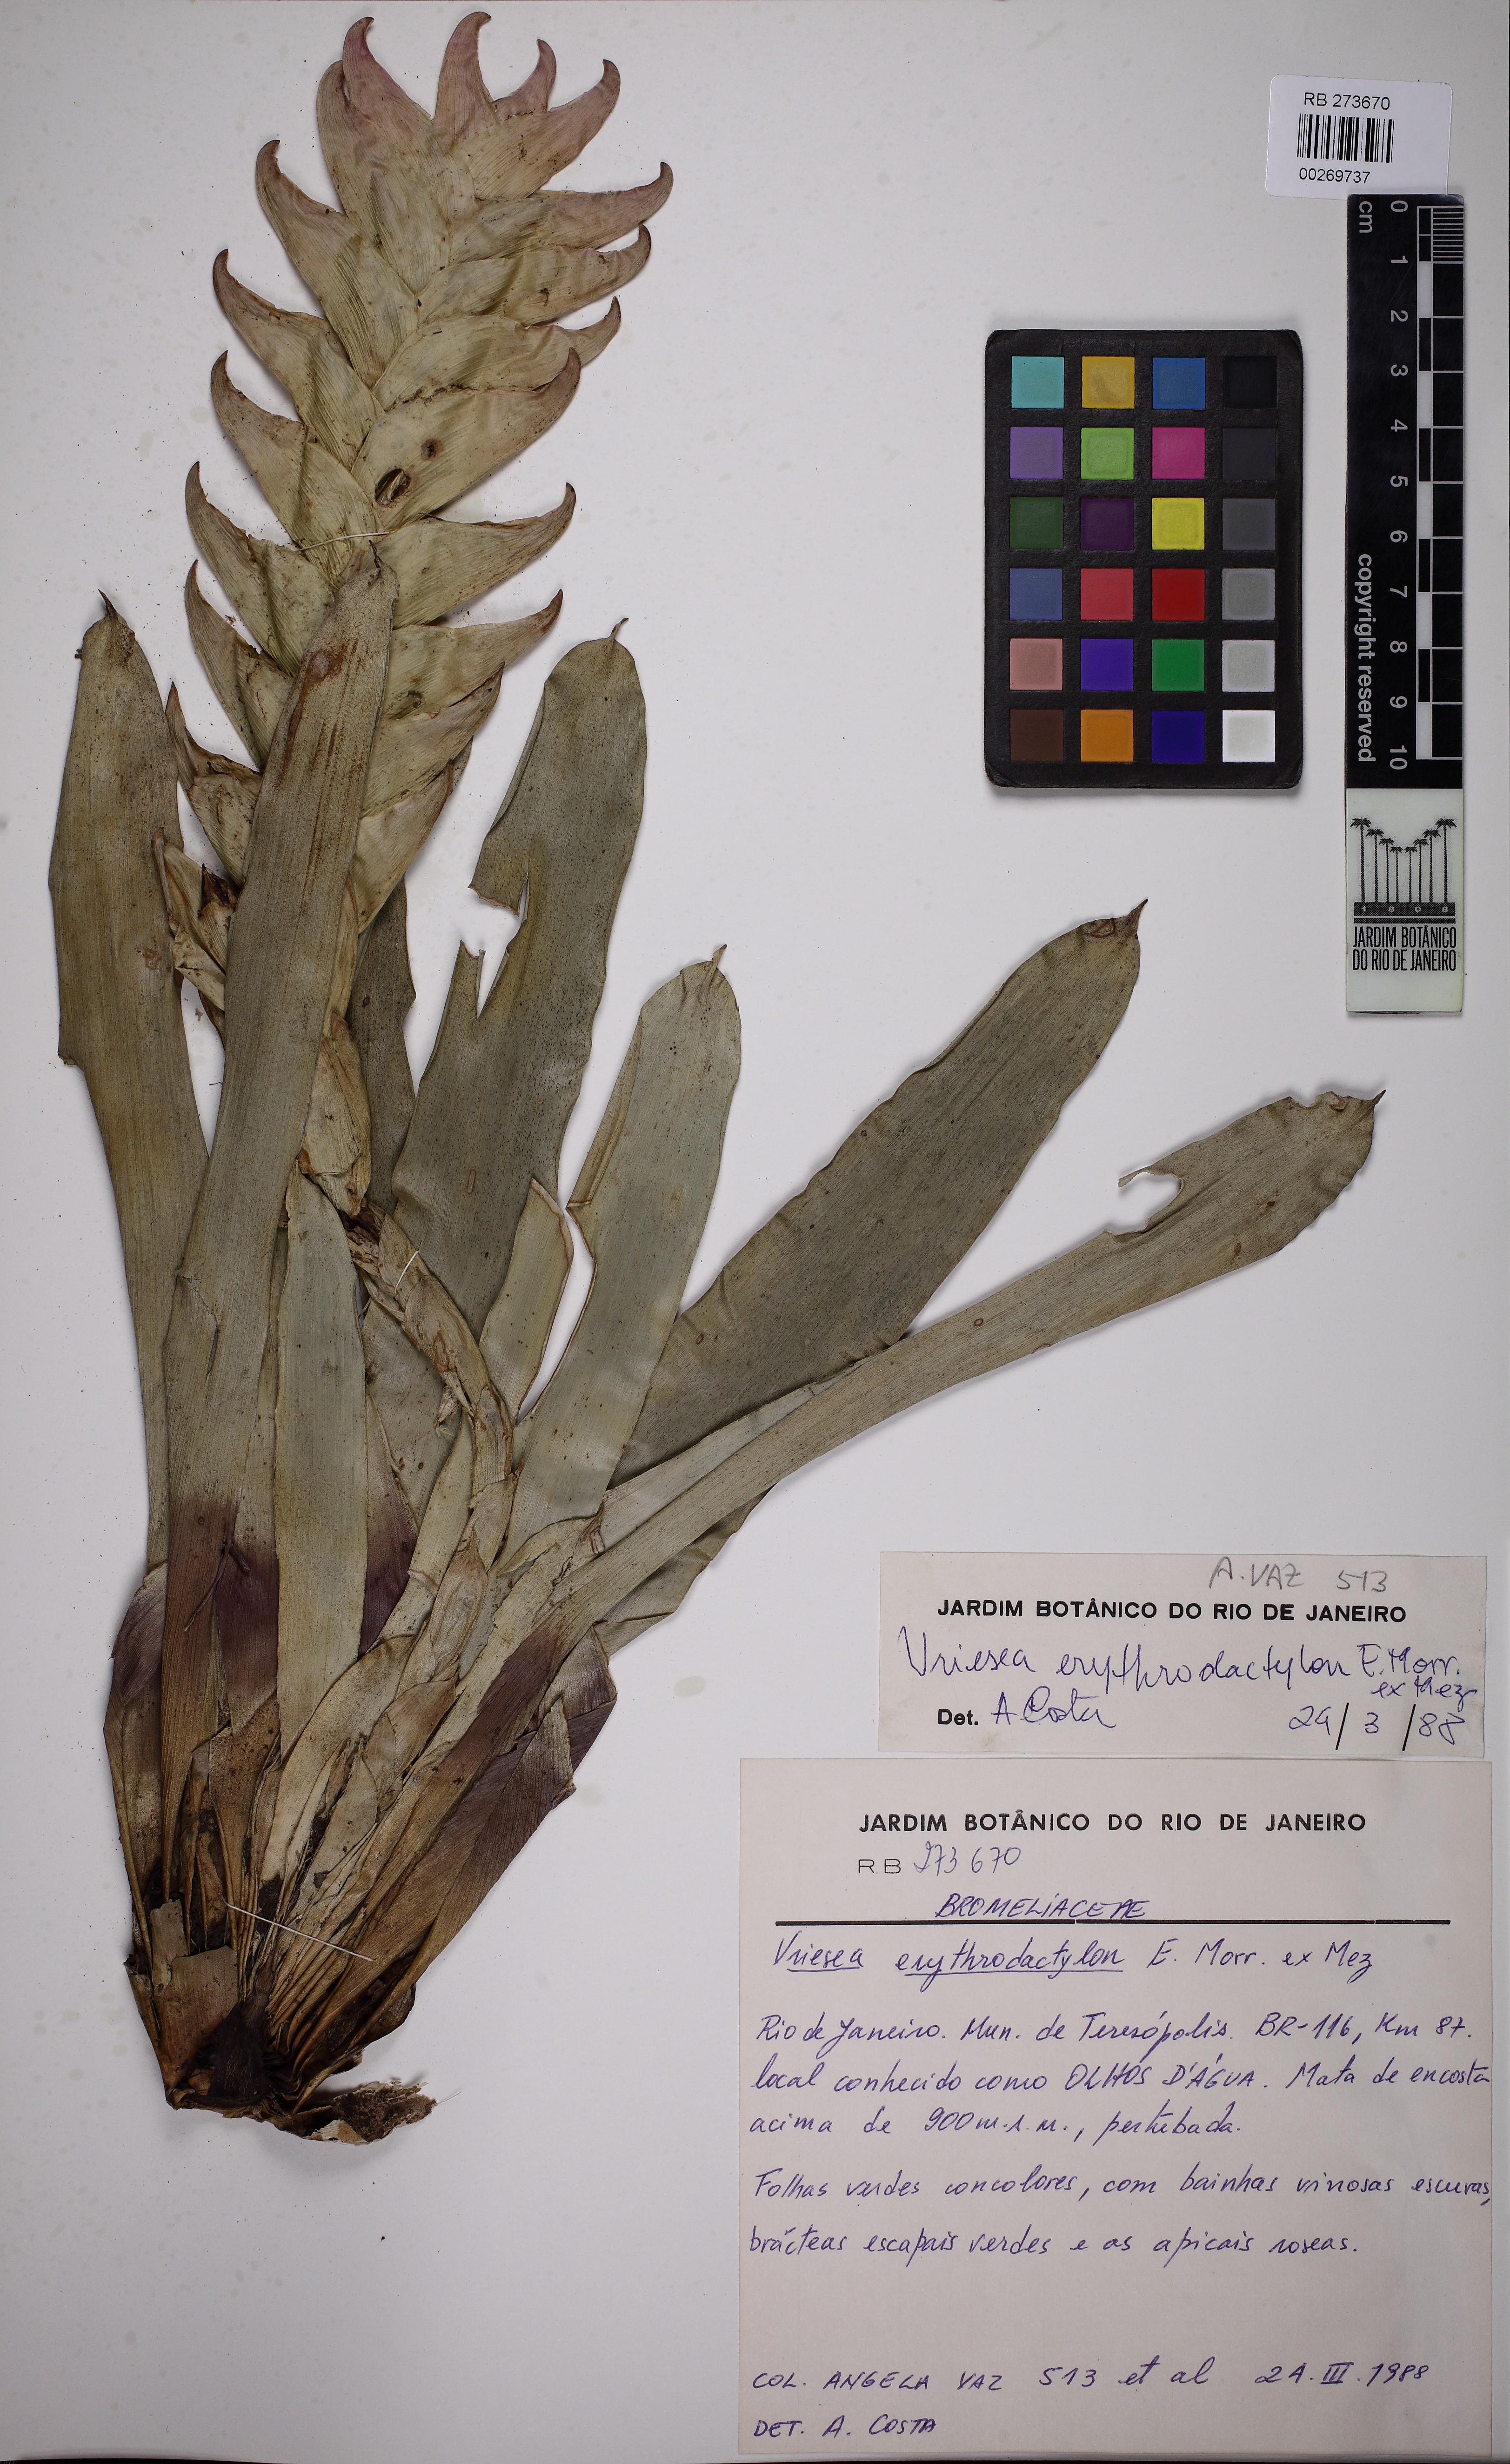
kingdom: Plantae
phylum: Tracheophyta
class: Liliopsida
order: Poales
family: Bromeliaceae
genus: Vriesea
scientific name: Vriesea erythrodactylon
